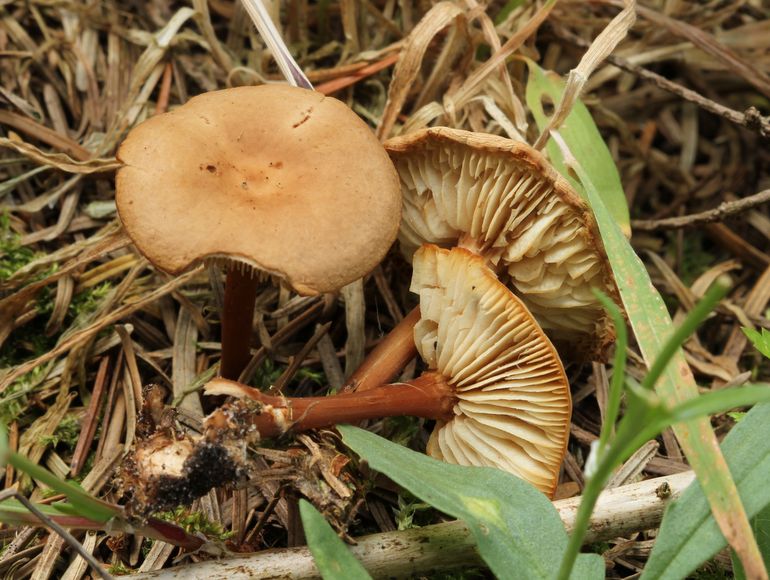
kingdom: Fungi
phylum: Basidiomycota
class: Agaricomycetes
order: Agaricales
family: Omphalotaceae
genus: Gymnopus
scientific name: Gymnopus ocior
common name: mørk fladhat
